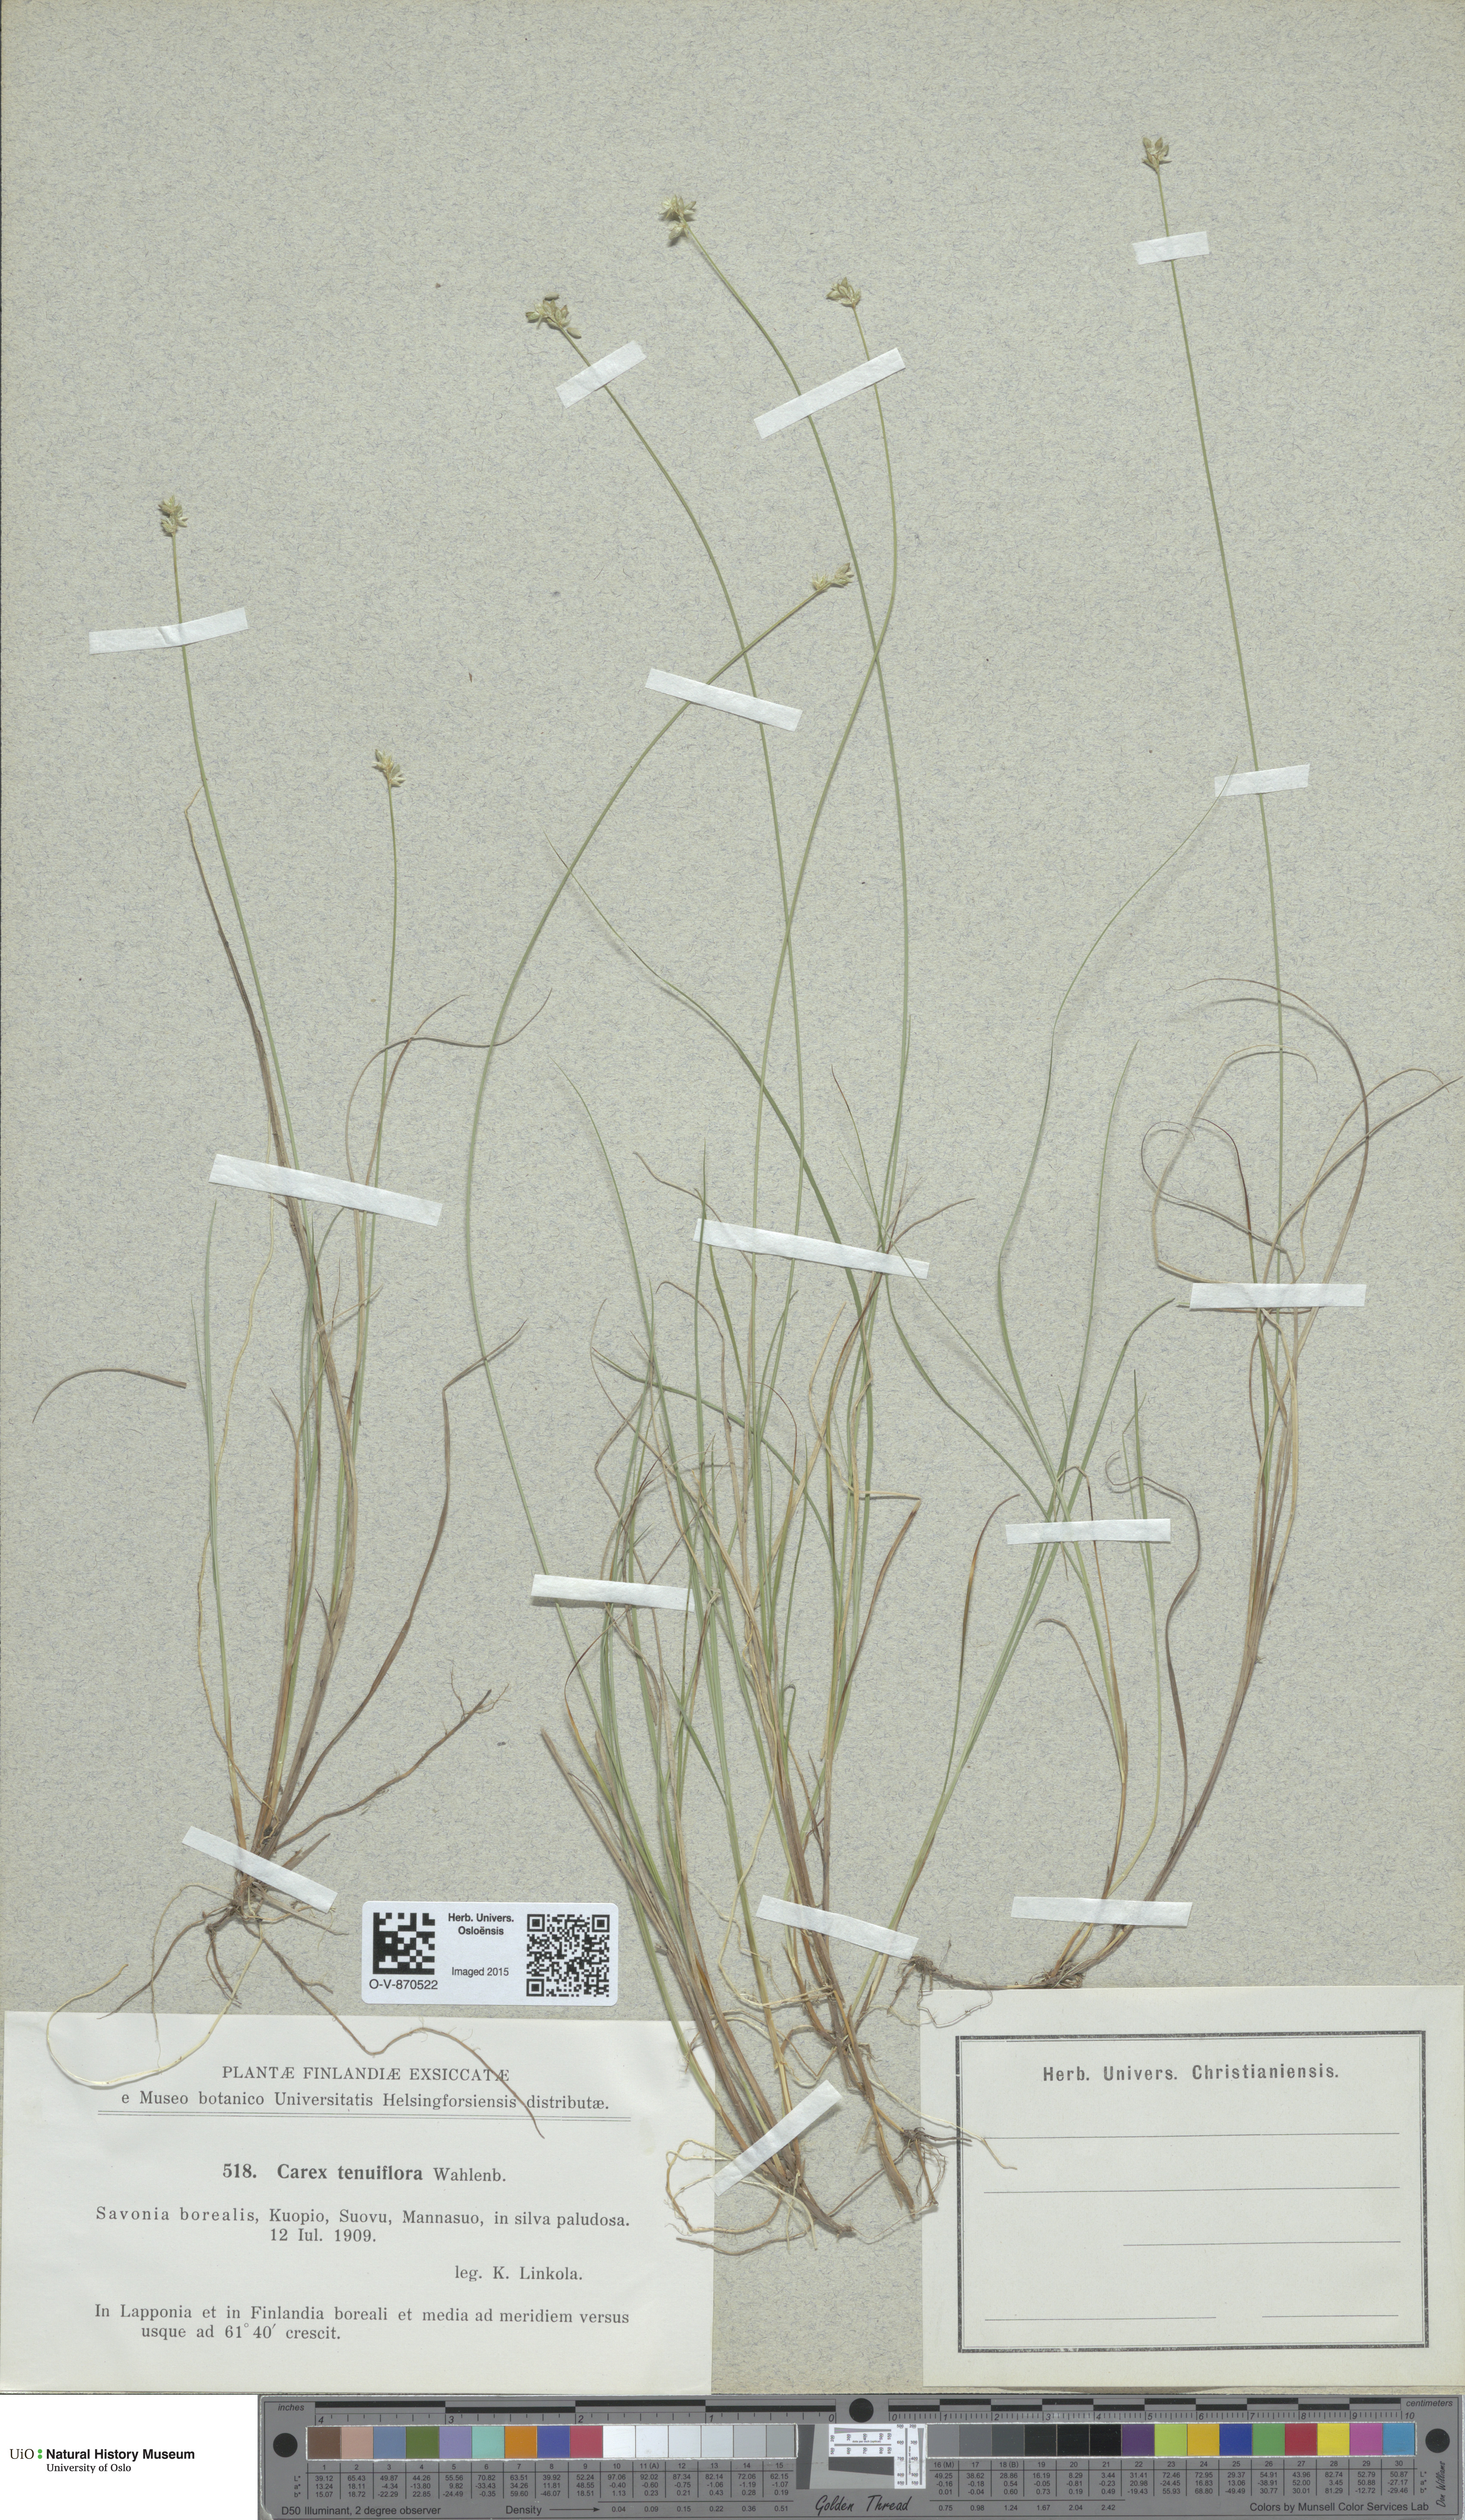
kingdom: Plantae
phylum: Tracheophyta
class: Liliopsida
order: Poales
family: Cyperaceae
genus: Carex
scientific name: Carex tenuiflora
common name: Sparse-flowered sedge
